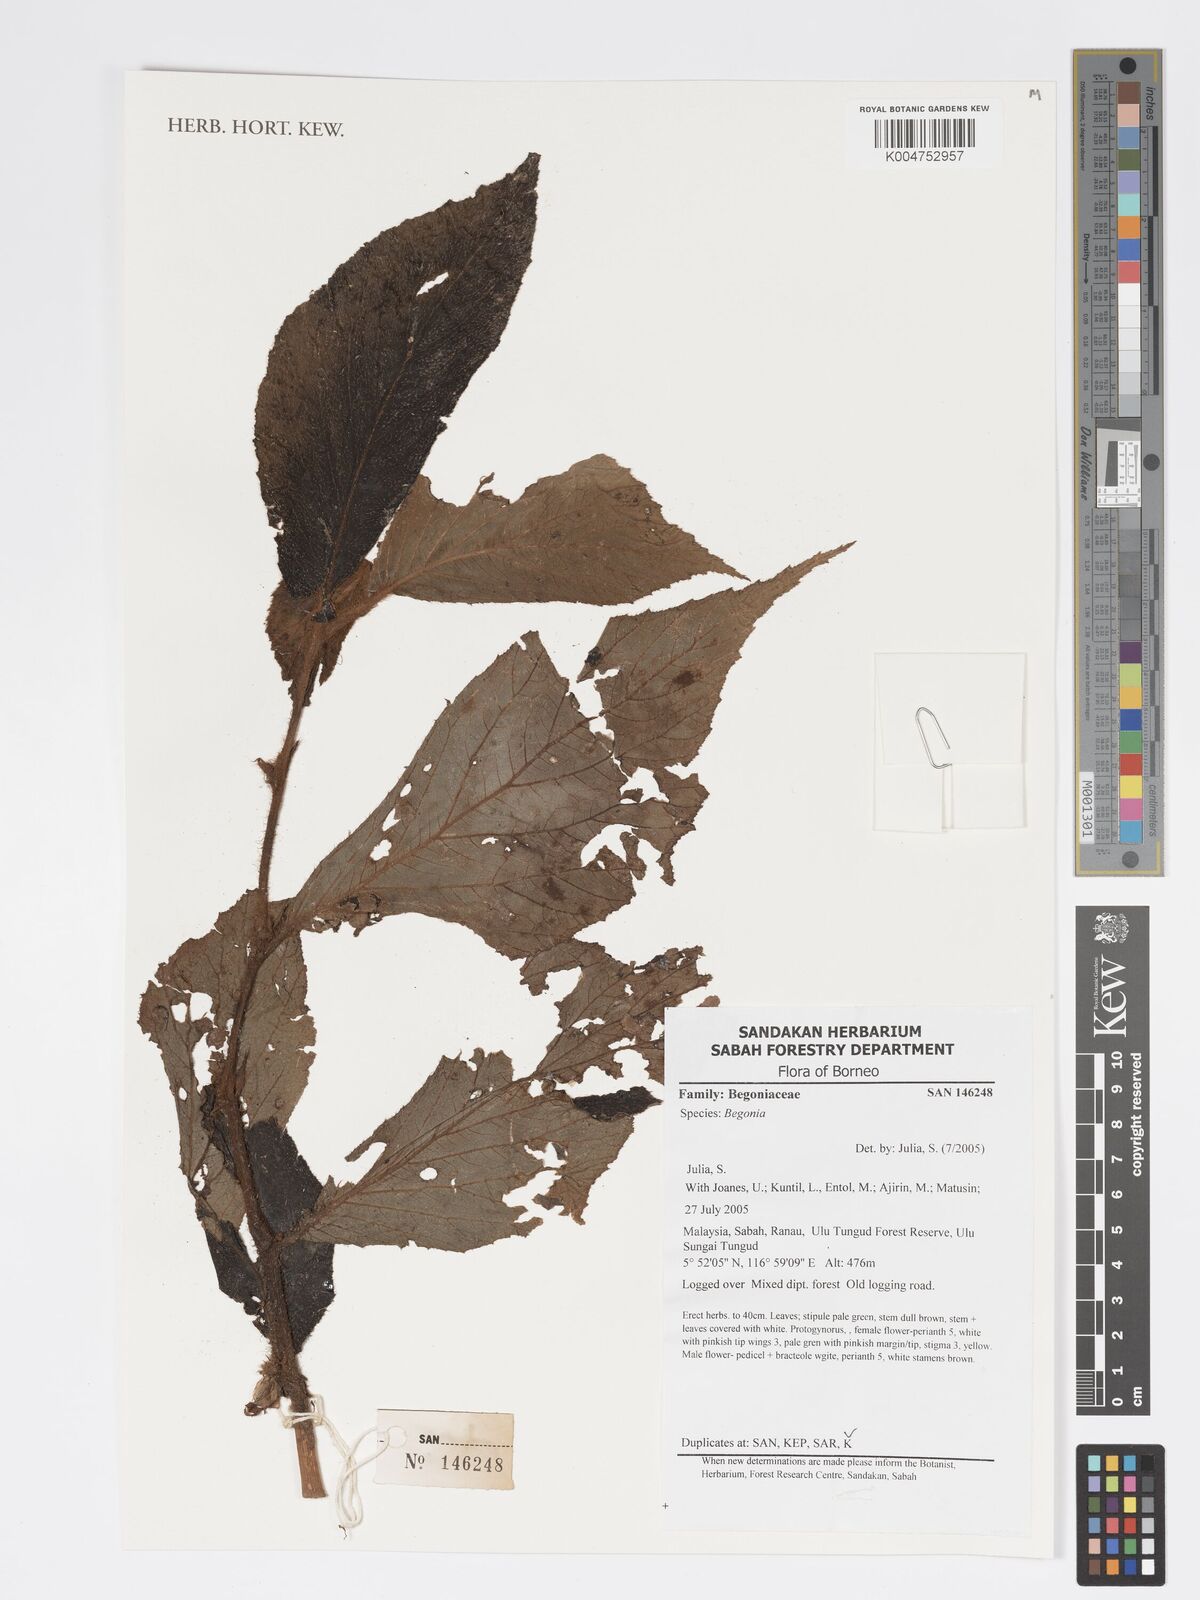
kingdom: Plantae
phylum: Tracheophyta
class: Magnoliopsida
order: Cucurbitales
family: Begoniaceae
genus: Begonia
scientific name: Begonia
